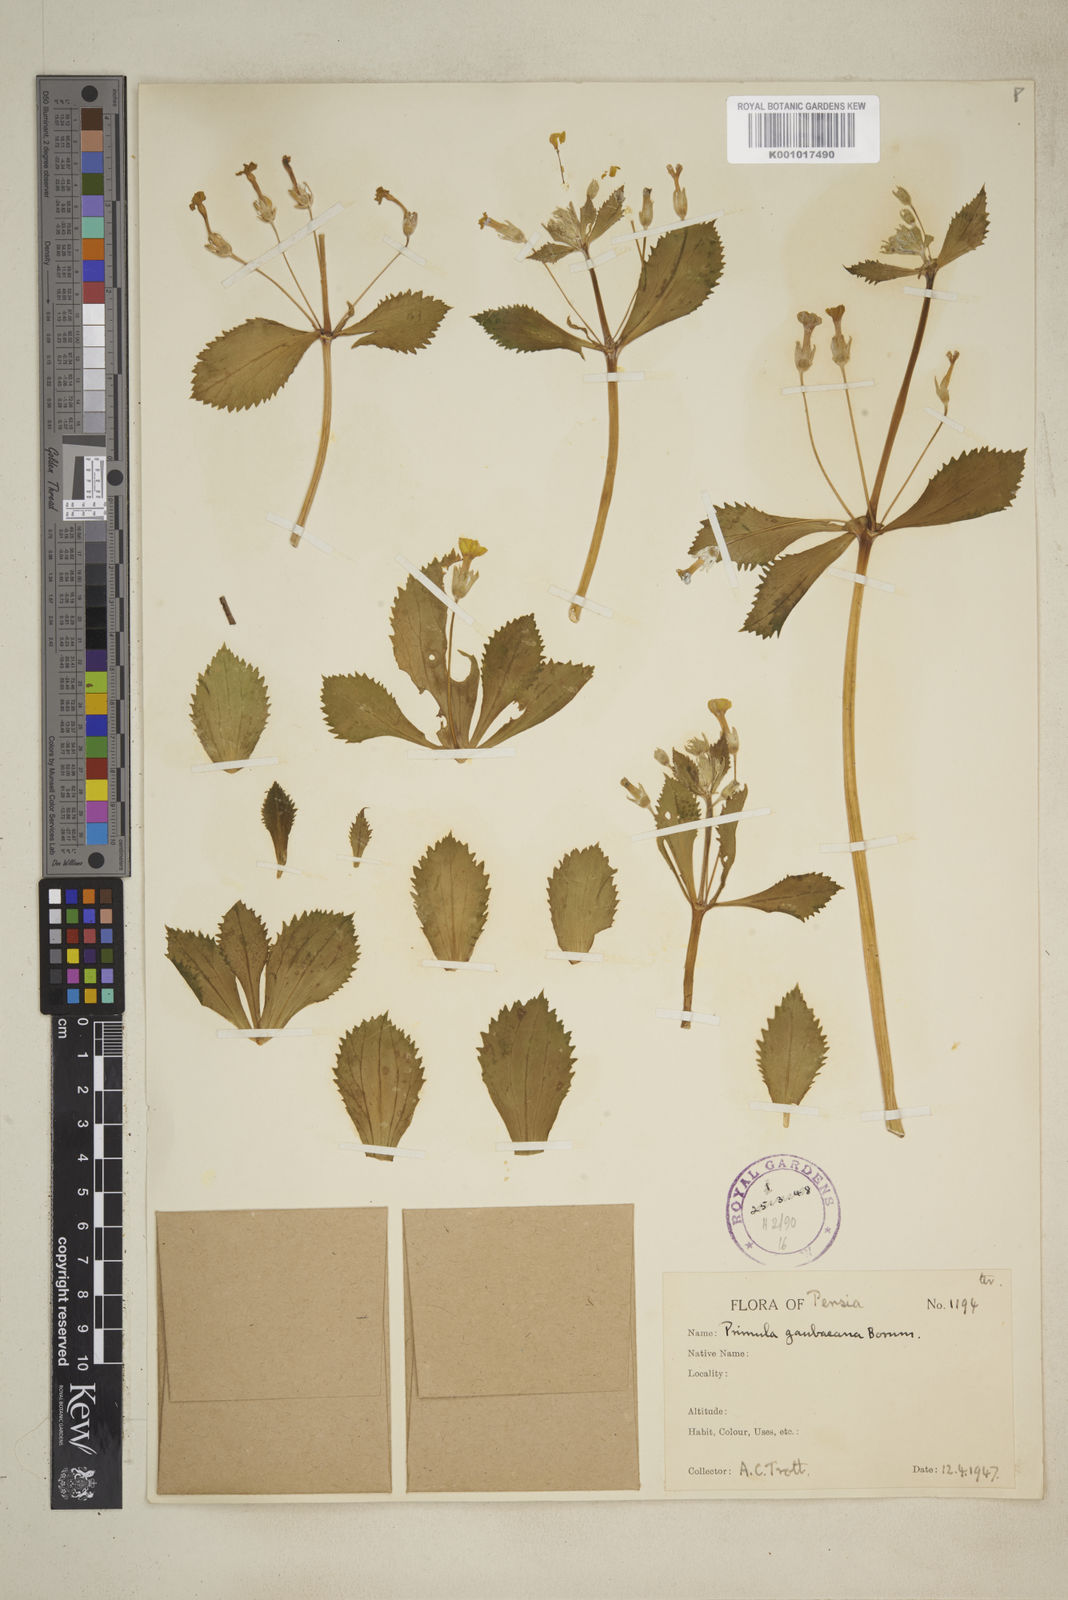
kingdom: Plantae
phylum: Tracheophyta
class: Magnoliopsida
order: Ericales
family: Primulaceae
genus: Evotrochis
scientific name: Evotrochis gaubaeana
